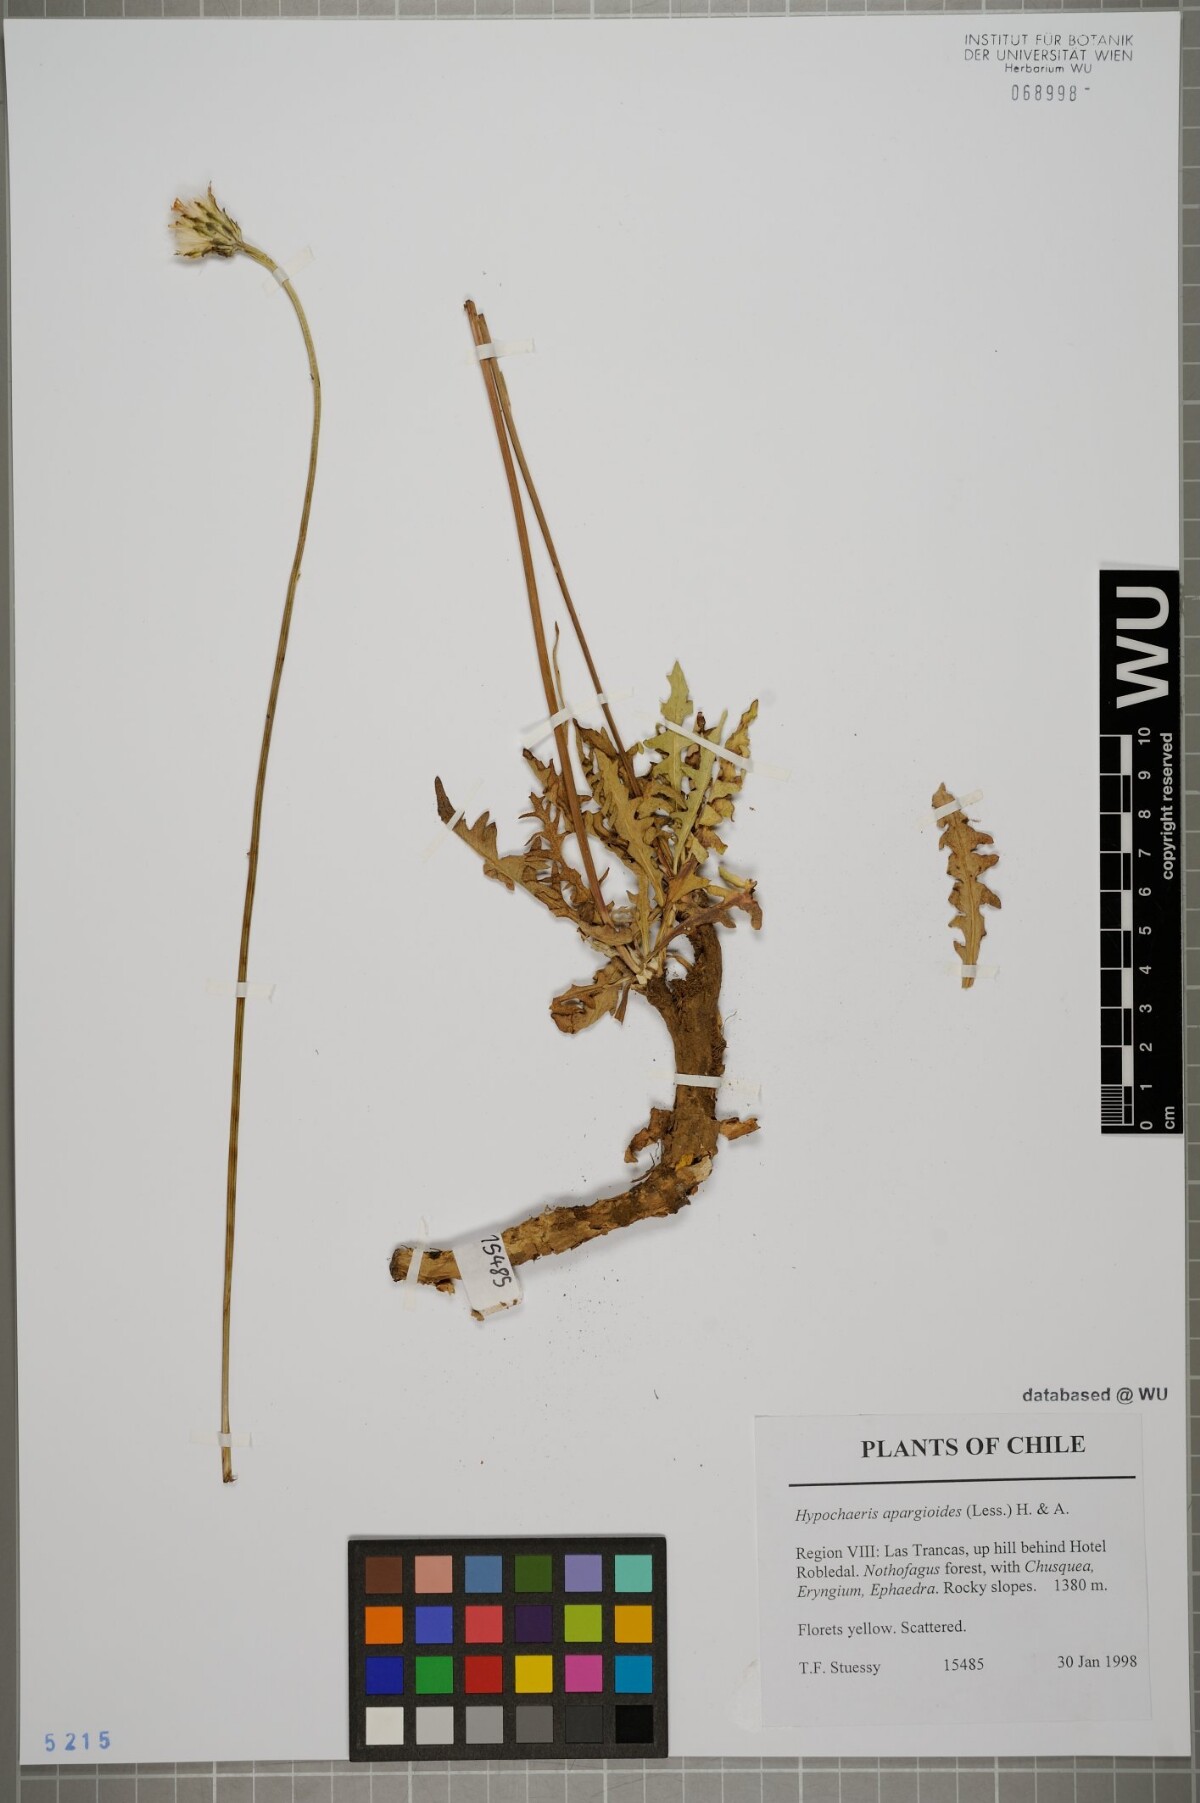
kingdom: Plantae
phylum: Tracheophyta
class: Magnoliopsida
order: Asterales
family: Asteraceae
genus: Hypochaeris
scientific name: Hypochaeris apargioides
